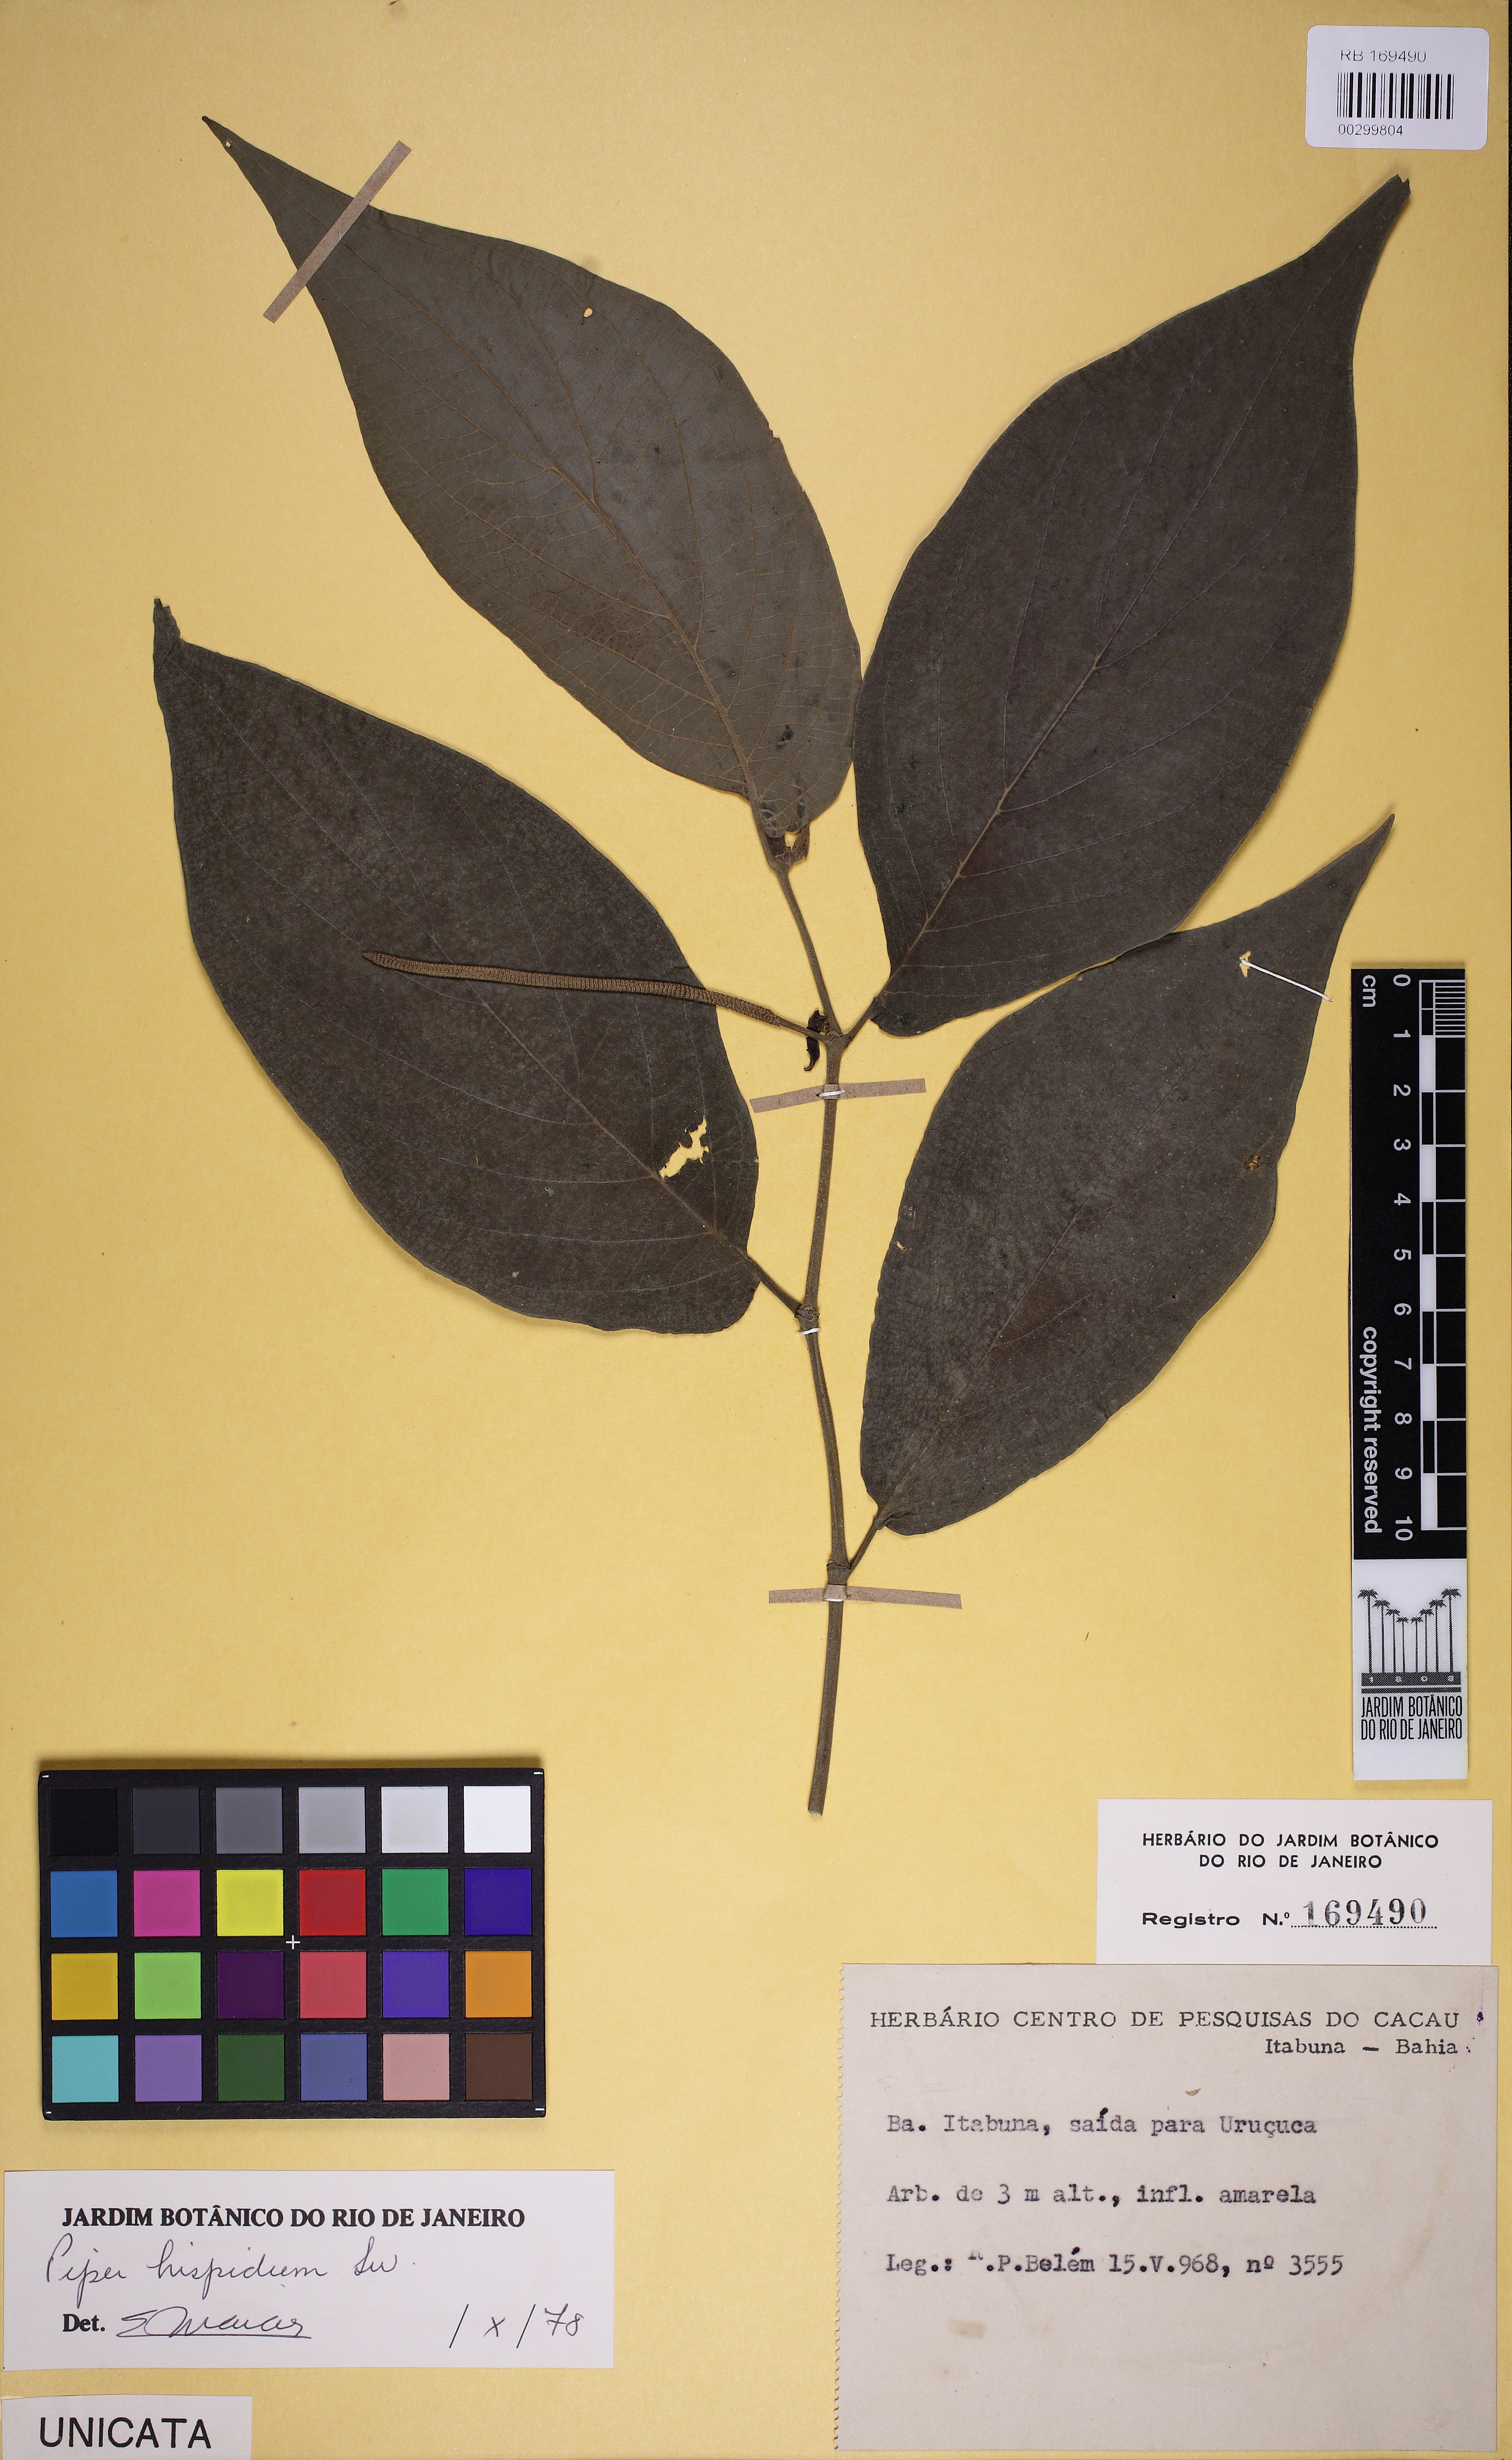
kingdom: Plantae
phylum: Tracheophyta
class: Magnoliopsida
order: Piperales
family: Piperaceae
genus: Piper
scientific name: Piper hispidum
